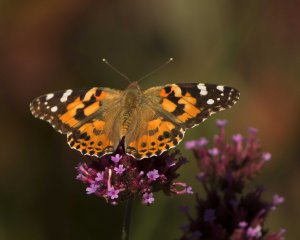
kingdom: Animalia
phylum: Arthropoda
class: Insecta
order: Lepidoptera
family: Nymphalidae
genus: Vanessa
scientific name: Vanessa cardui
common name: Painted Lady
